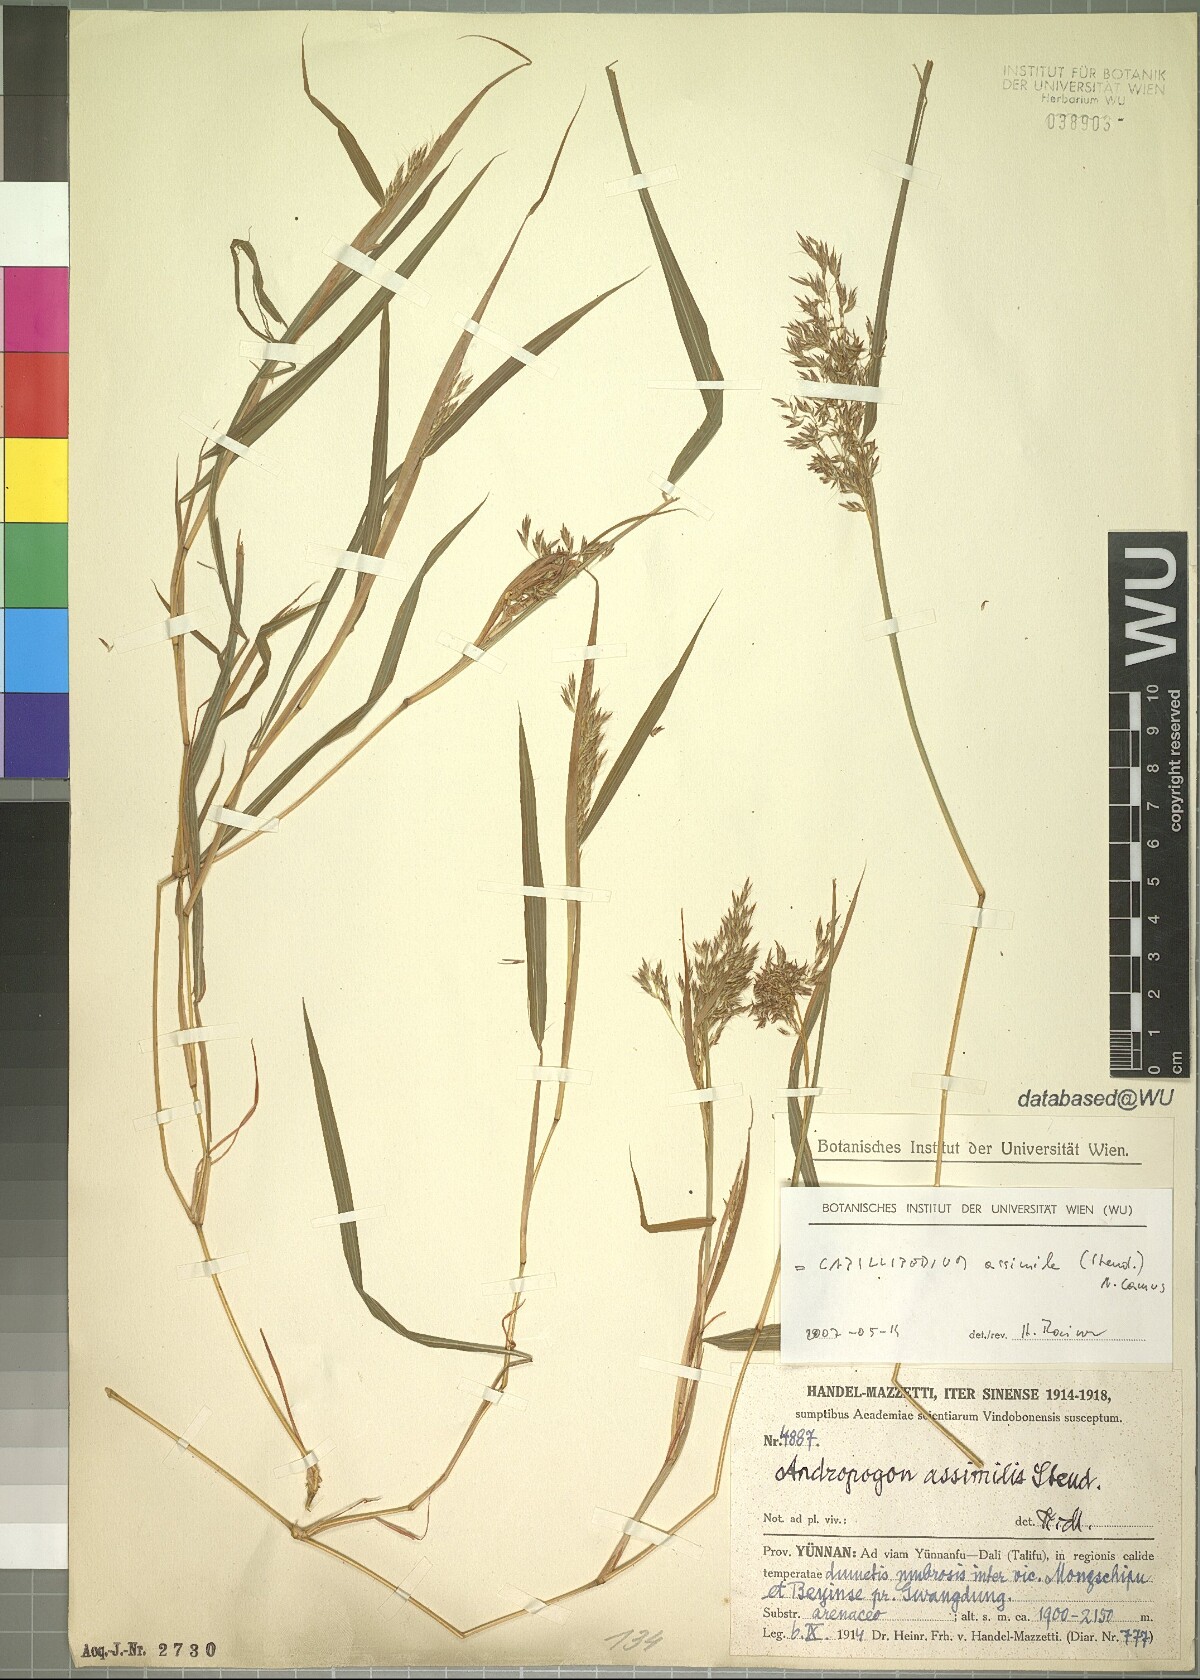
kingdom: Plantae
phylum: Tracheophyta
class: Liliopsida
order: Poales
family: Poaceae
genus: Capillipedium
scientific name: Capillipedium assimile
